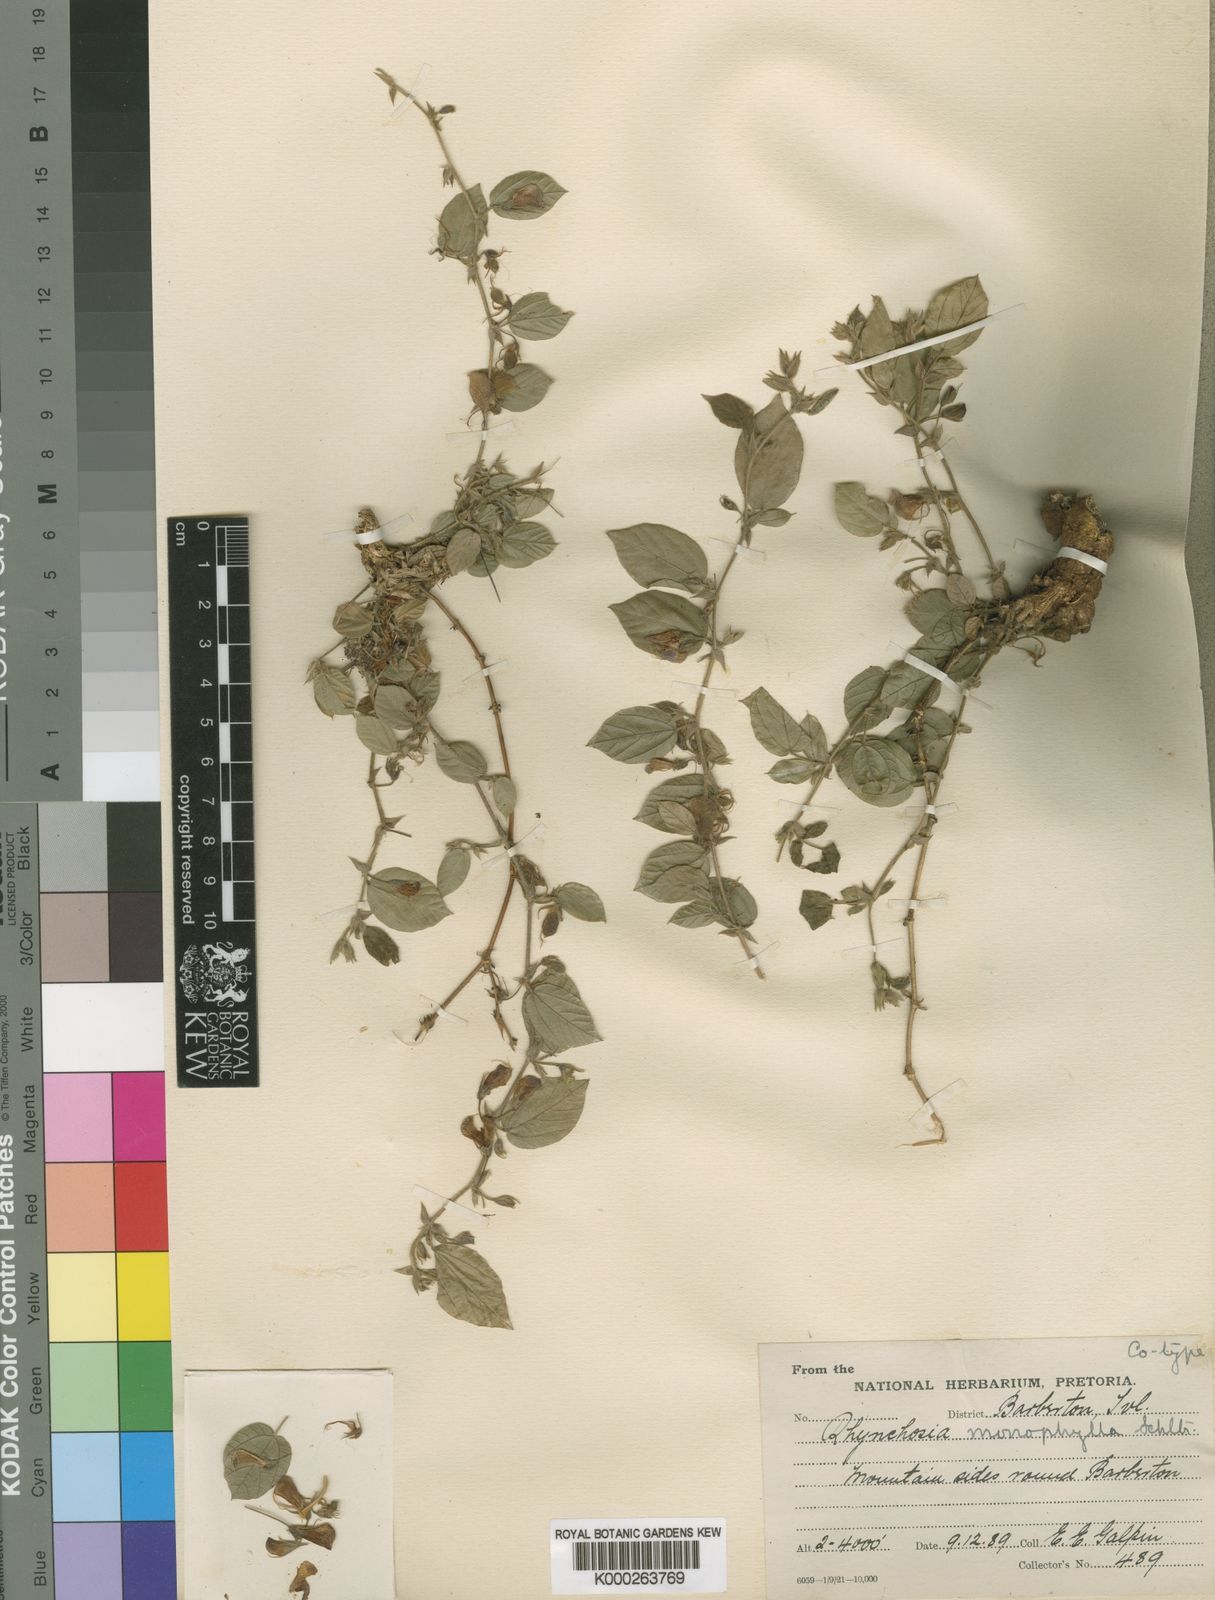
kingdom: Plantae
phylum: Tracheophyta
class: Magnoliopsida
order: Fabales
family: Fabaceae
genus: Rhynchosia
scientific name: Rhynchosia monophylla
